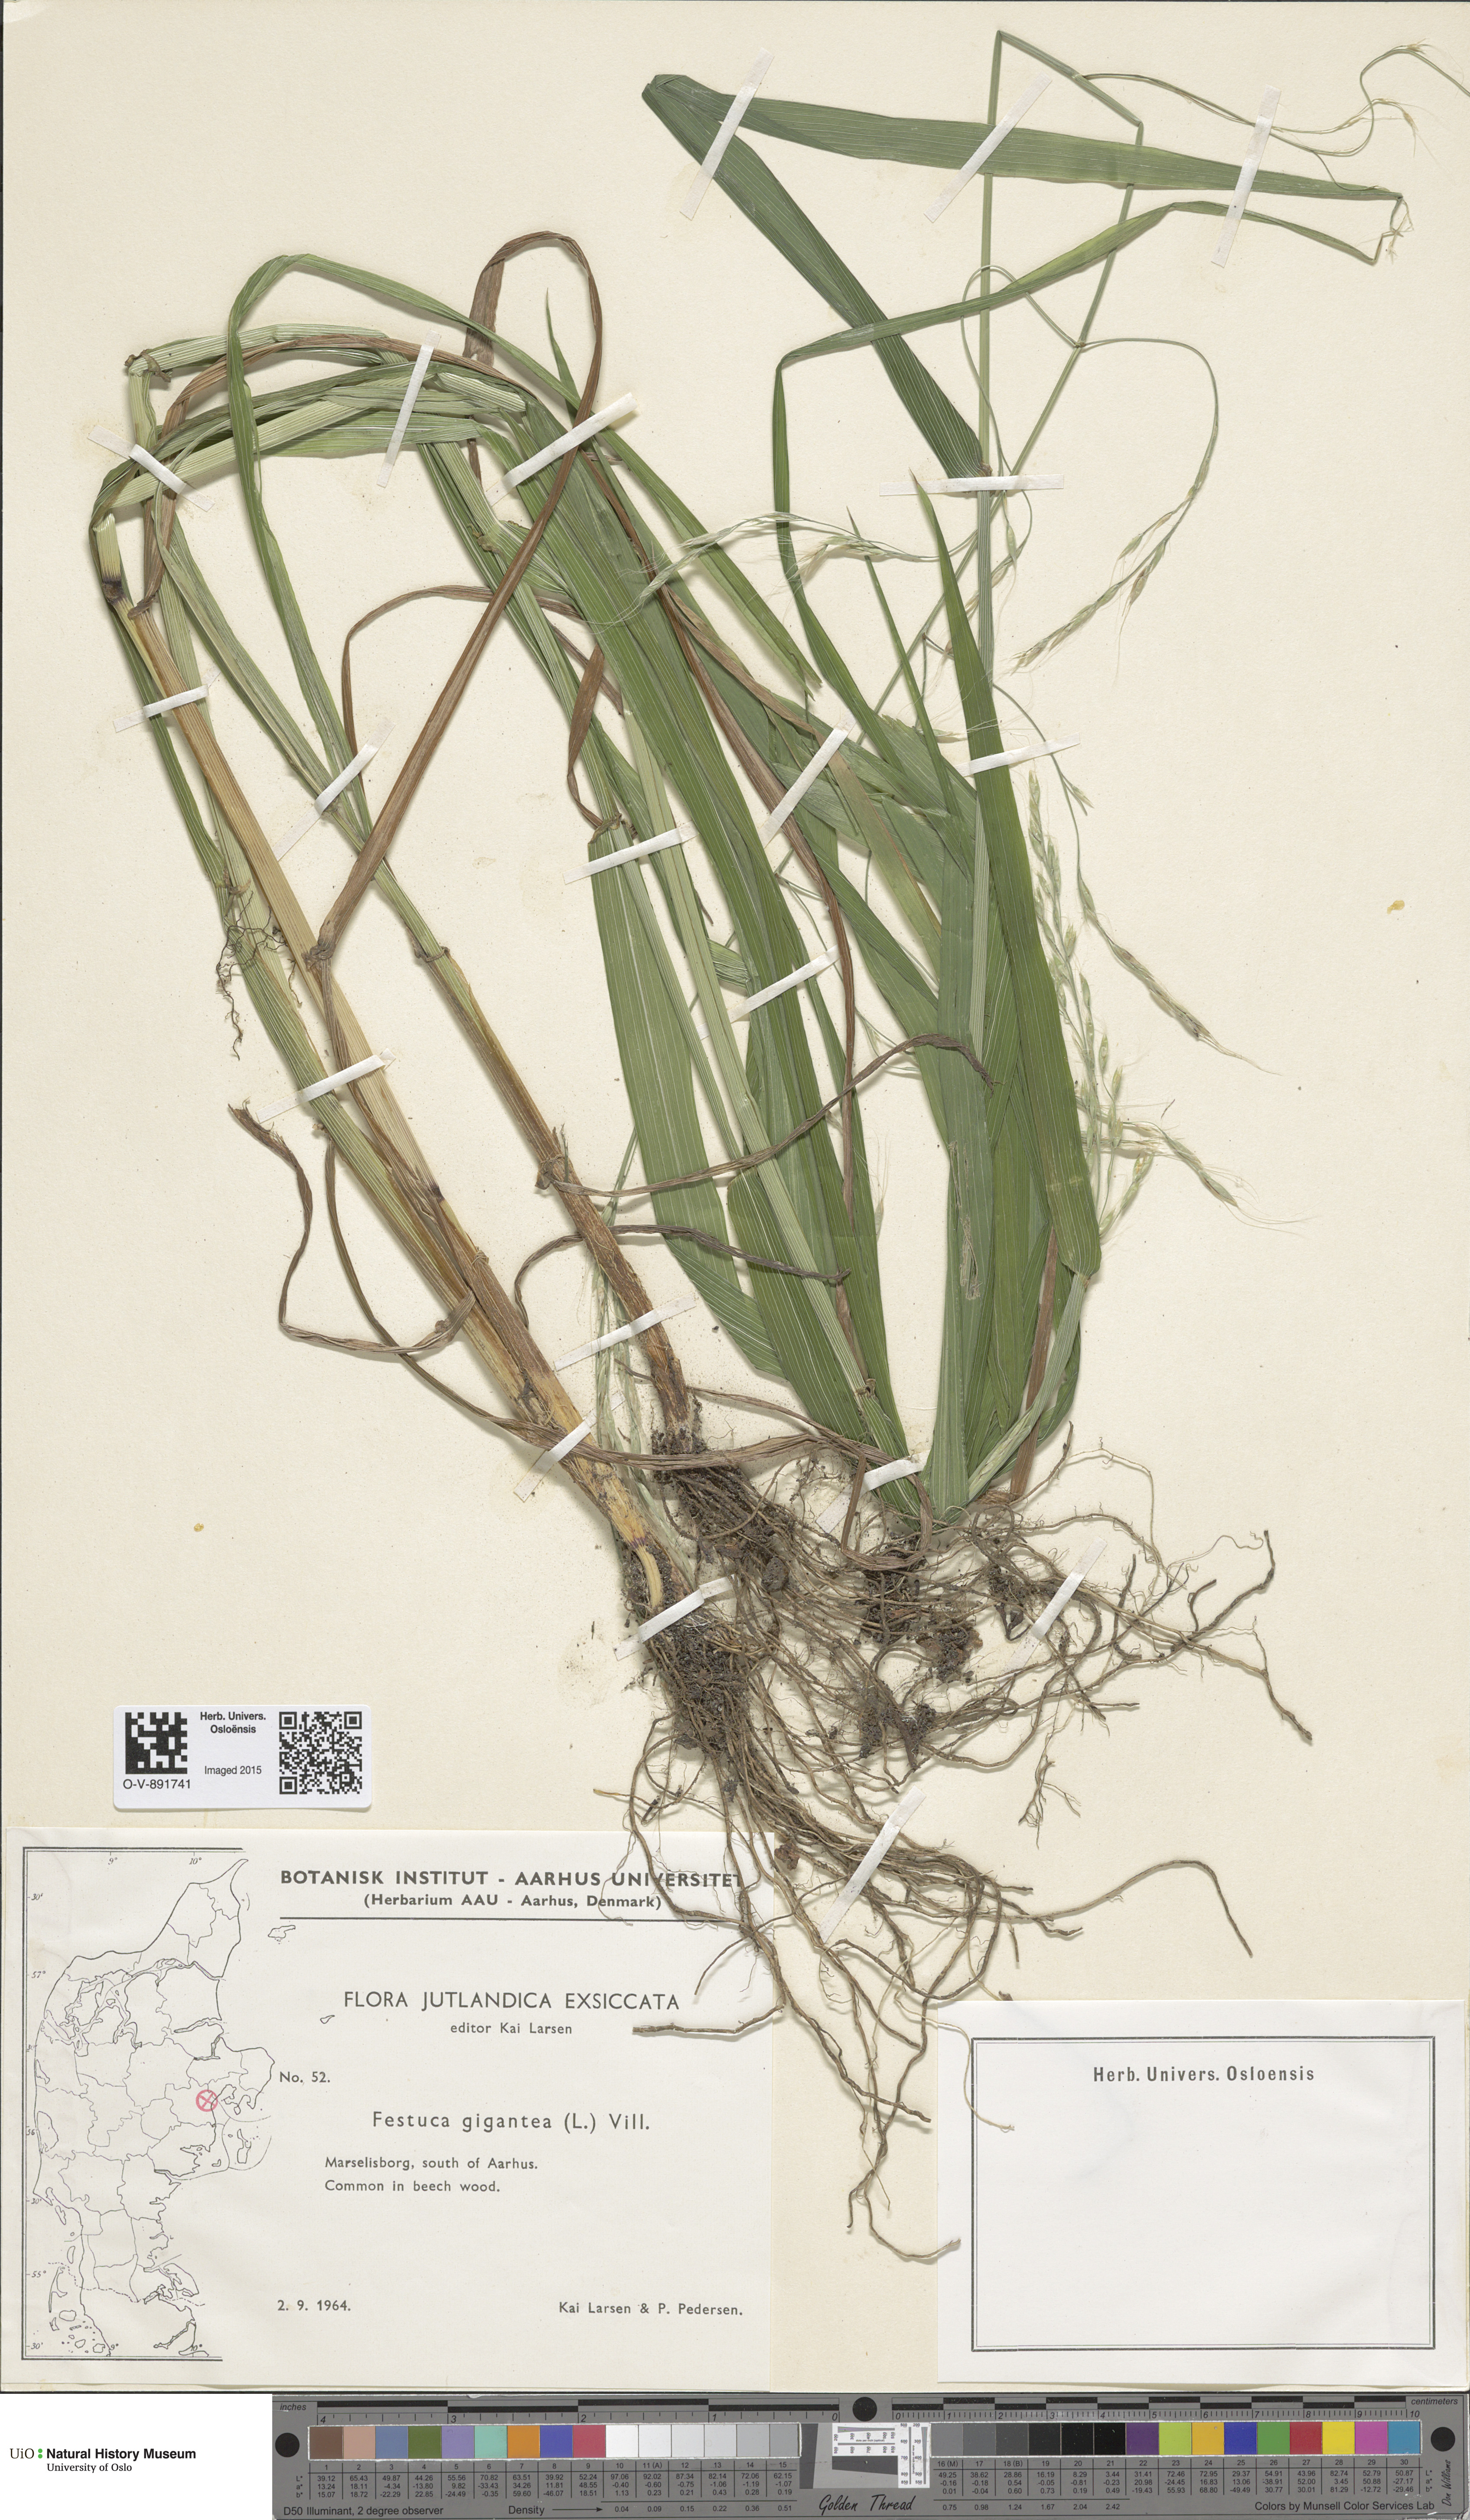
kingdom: Plantae
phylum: Tracheophyta
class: Liliopsida
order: Poales
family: Poaceae
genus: Lolium
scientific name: Lolium giganteum
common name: Giant fescue
